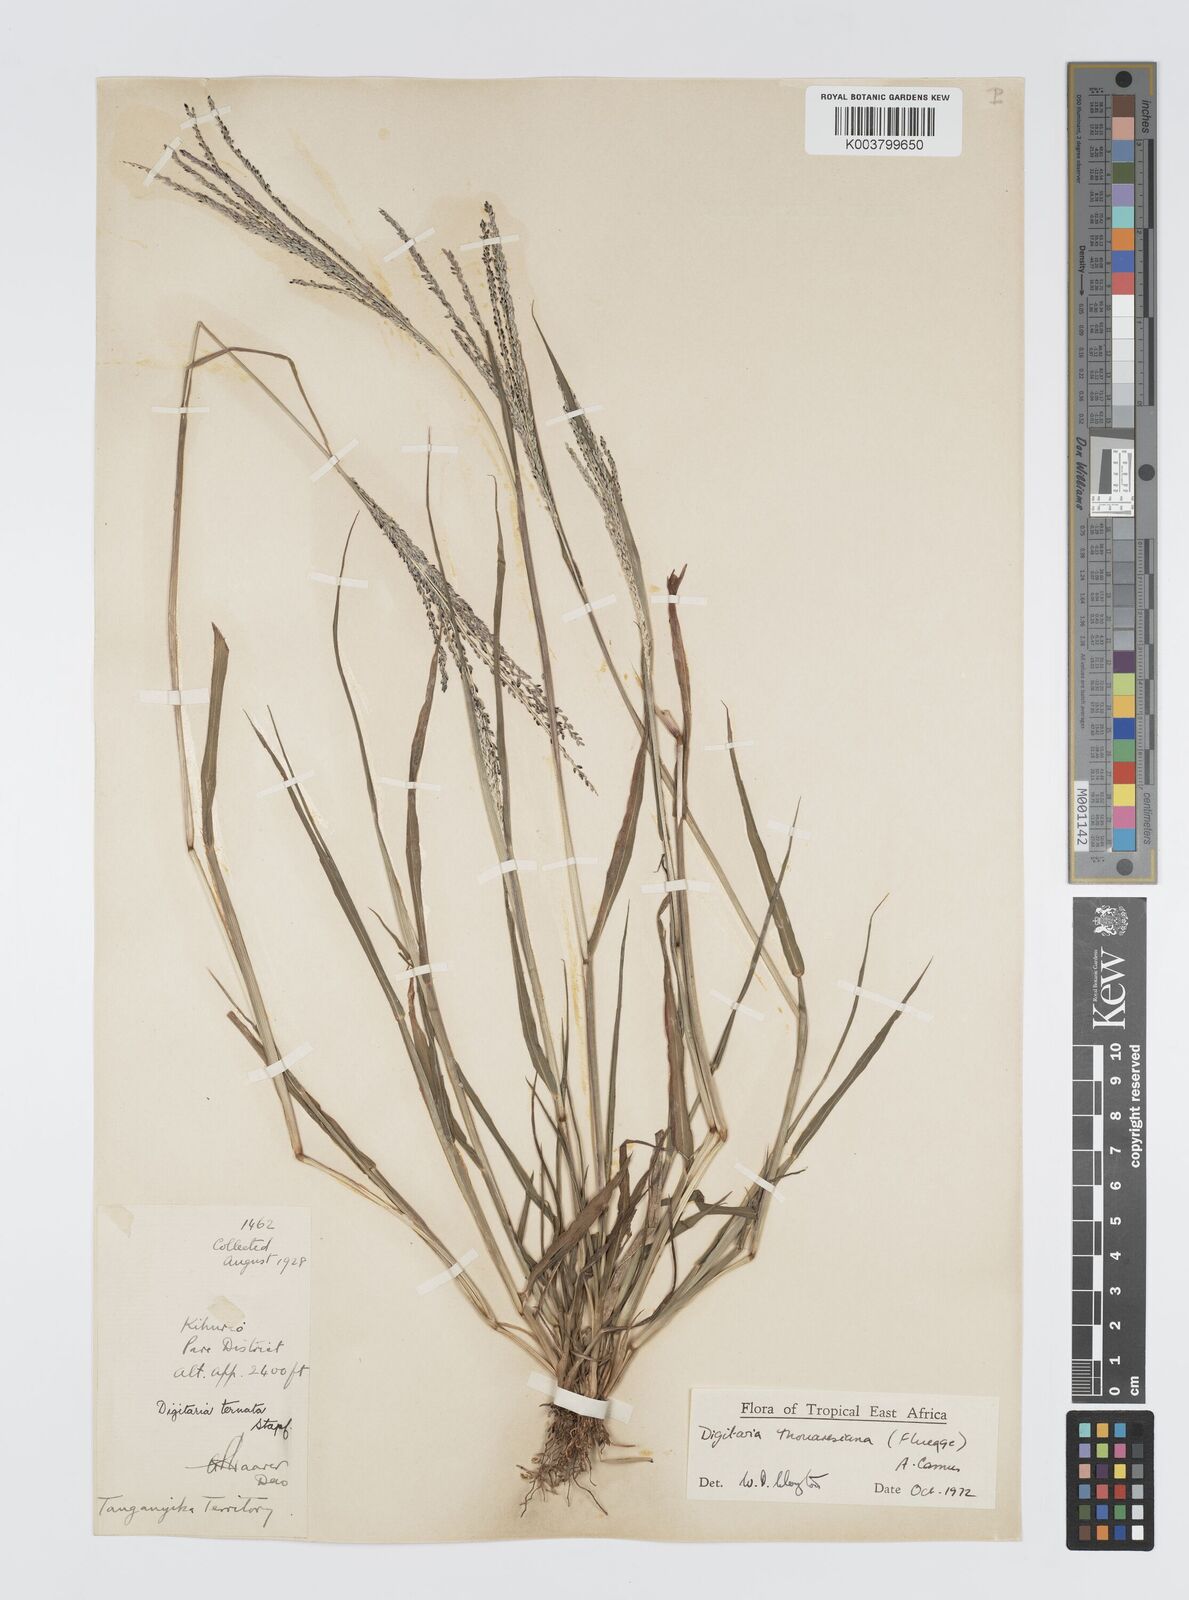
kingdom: Plantae
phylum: Tracheophyta
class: Liliopsida
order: Poales
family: Poaceae
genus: Digitaria
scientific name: Digitaria thouarsiana
